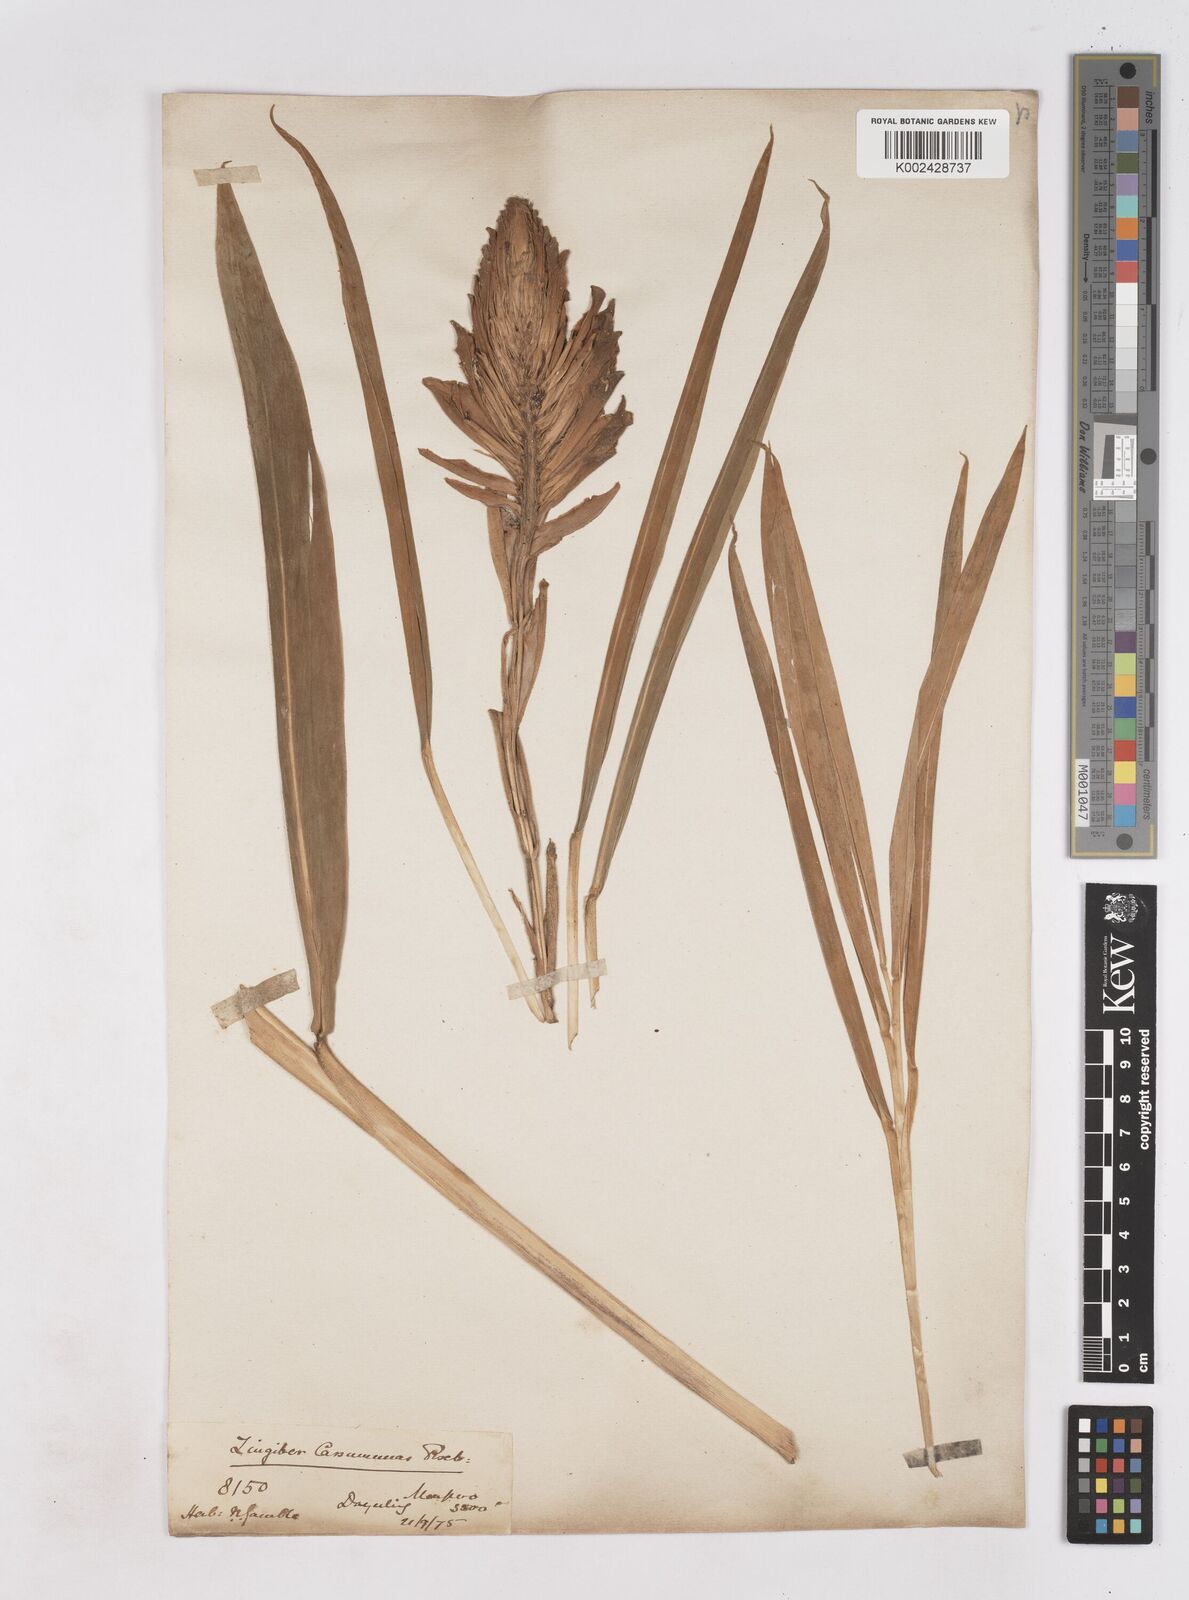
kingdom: Plantae
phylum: Tracheophyta
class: Liliopsida
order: Zingiberales
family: Zingiberaceae
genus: Zingiber
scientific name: Zingiber montanum
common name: Bengal ginger
